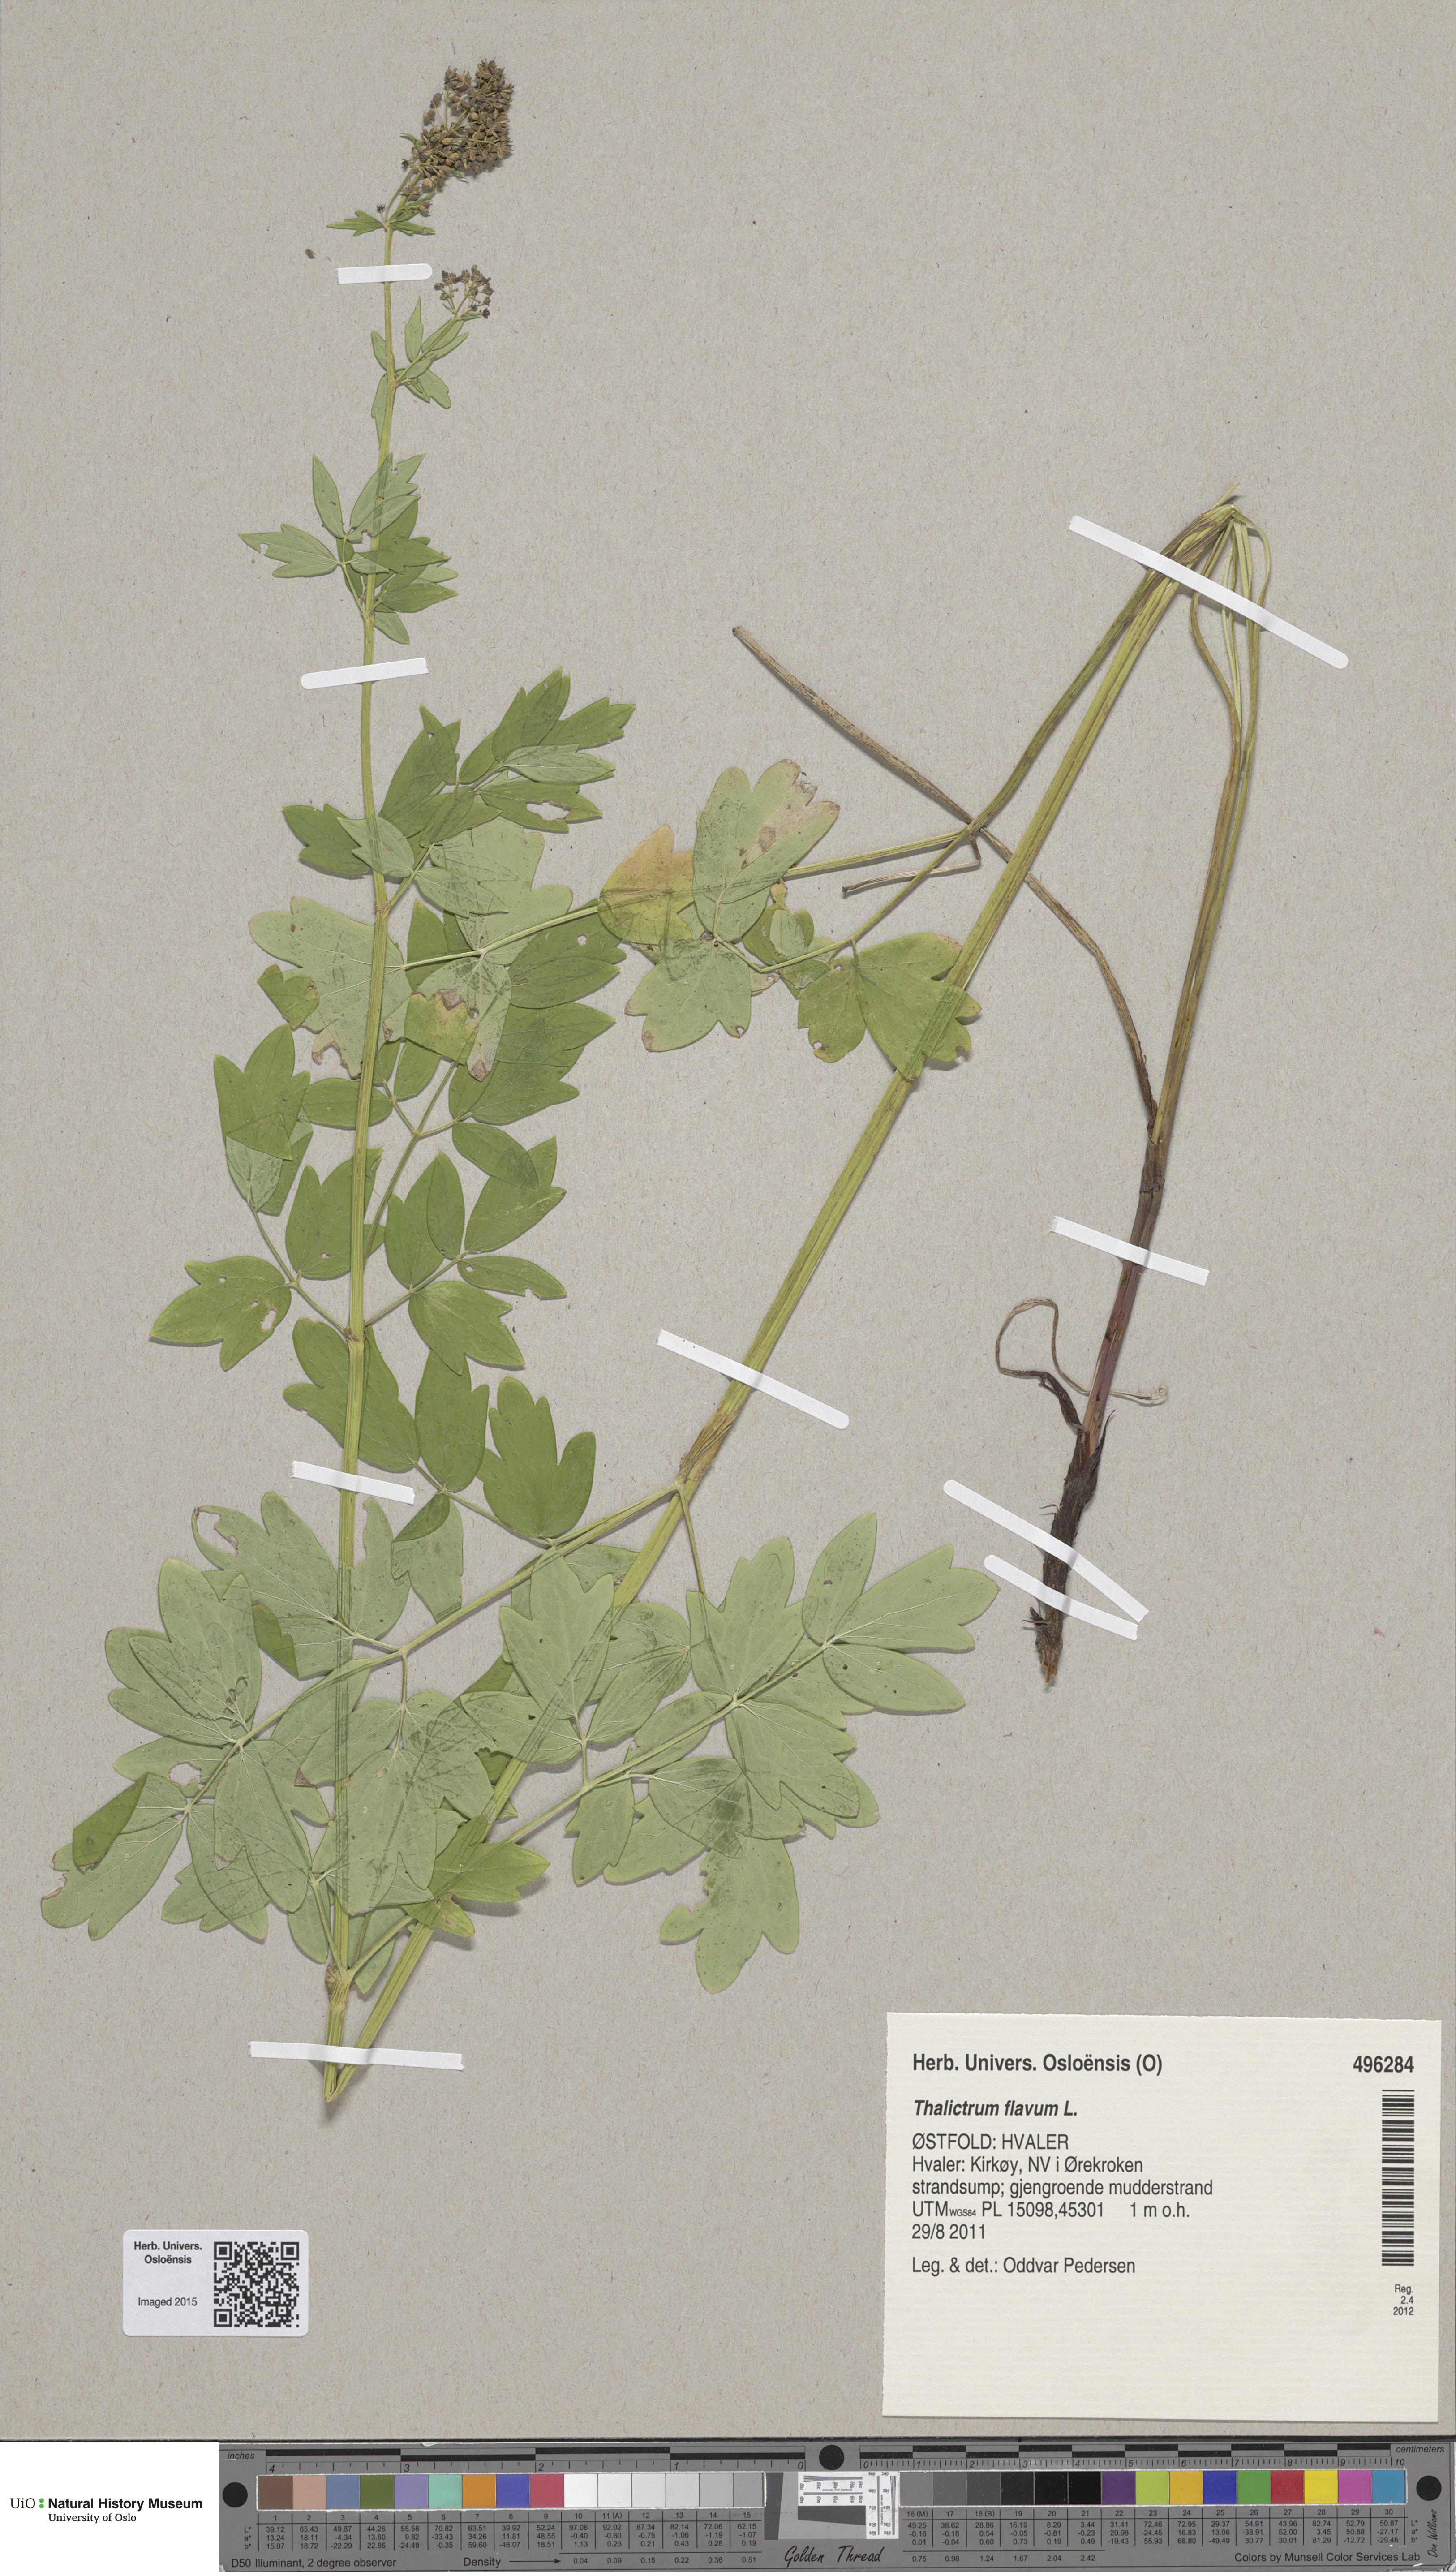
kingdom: Plantae
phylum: Tracheophyta
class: Magnoliopsida
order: Ranunculales
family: Ranunculaceae
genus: Thalictrum
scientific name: Thalictrum flavum
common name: Common meadow-rue
